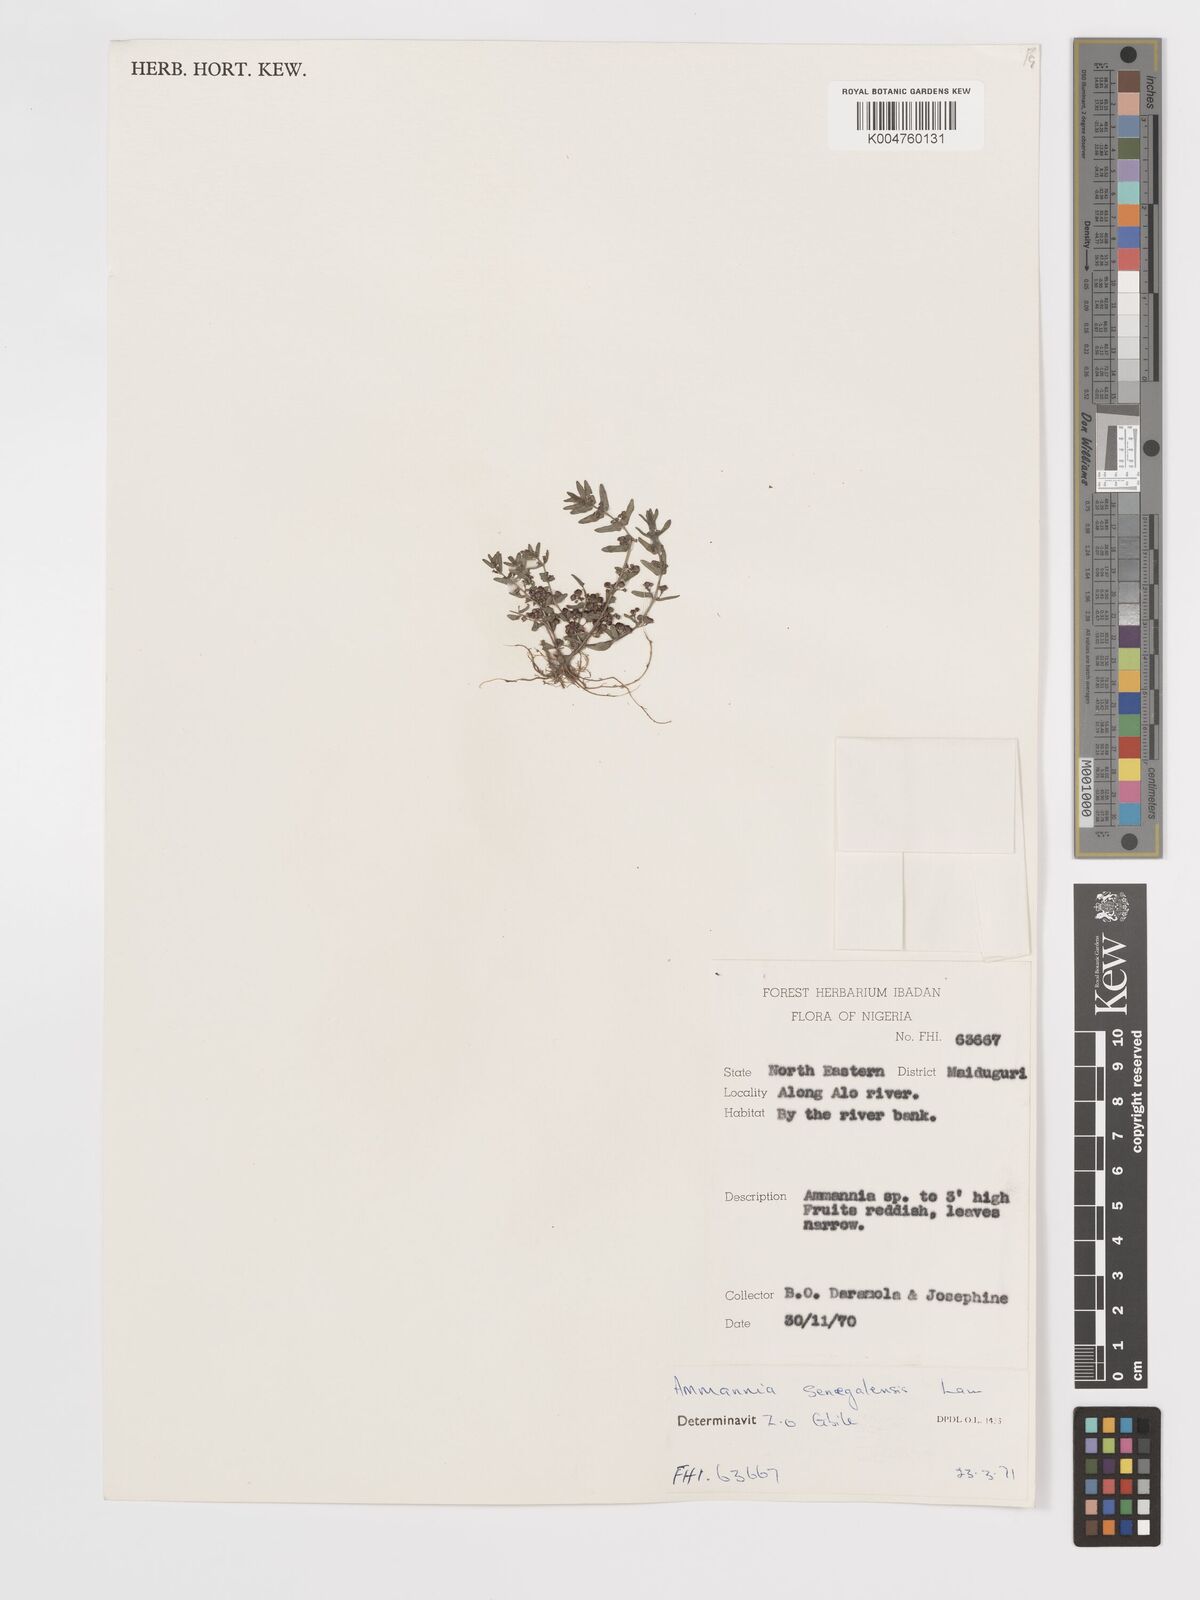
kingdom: Plantae
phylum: Tracheophyta
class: Magnoliopsida
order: Myrtales
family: Lythraceae
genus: Ammannia
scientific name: Ammannia senegalensis
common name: Red ammannia
